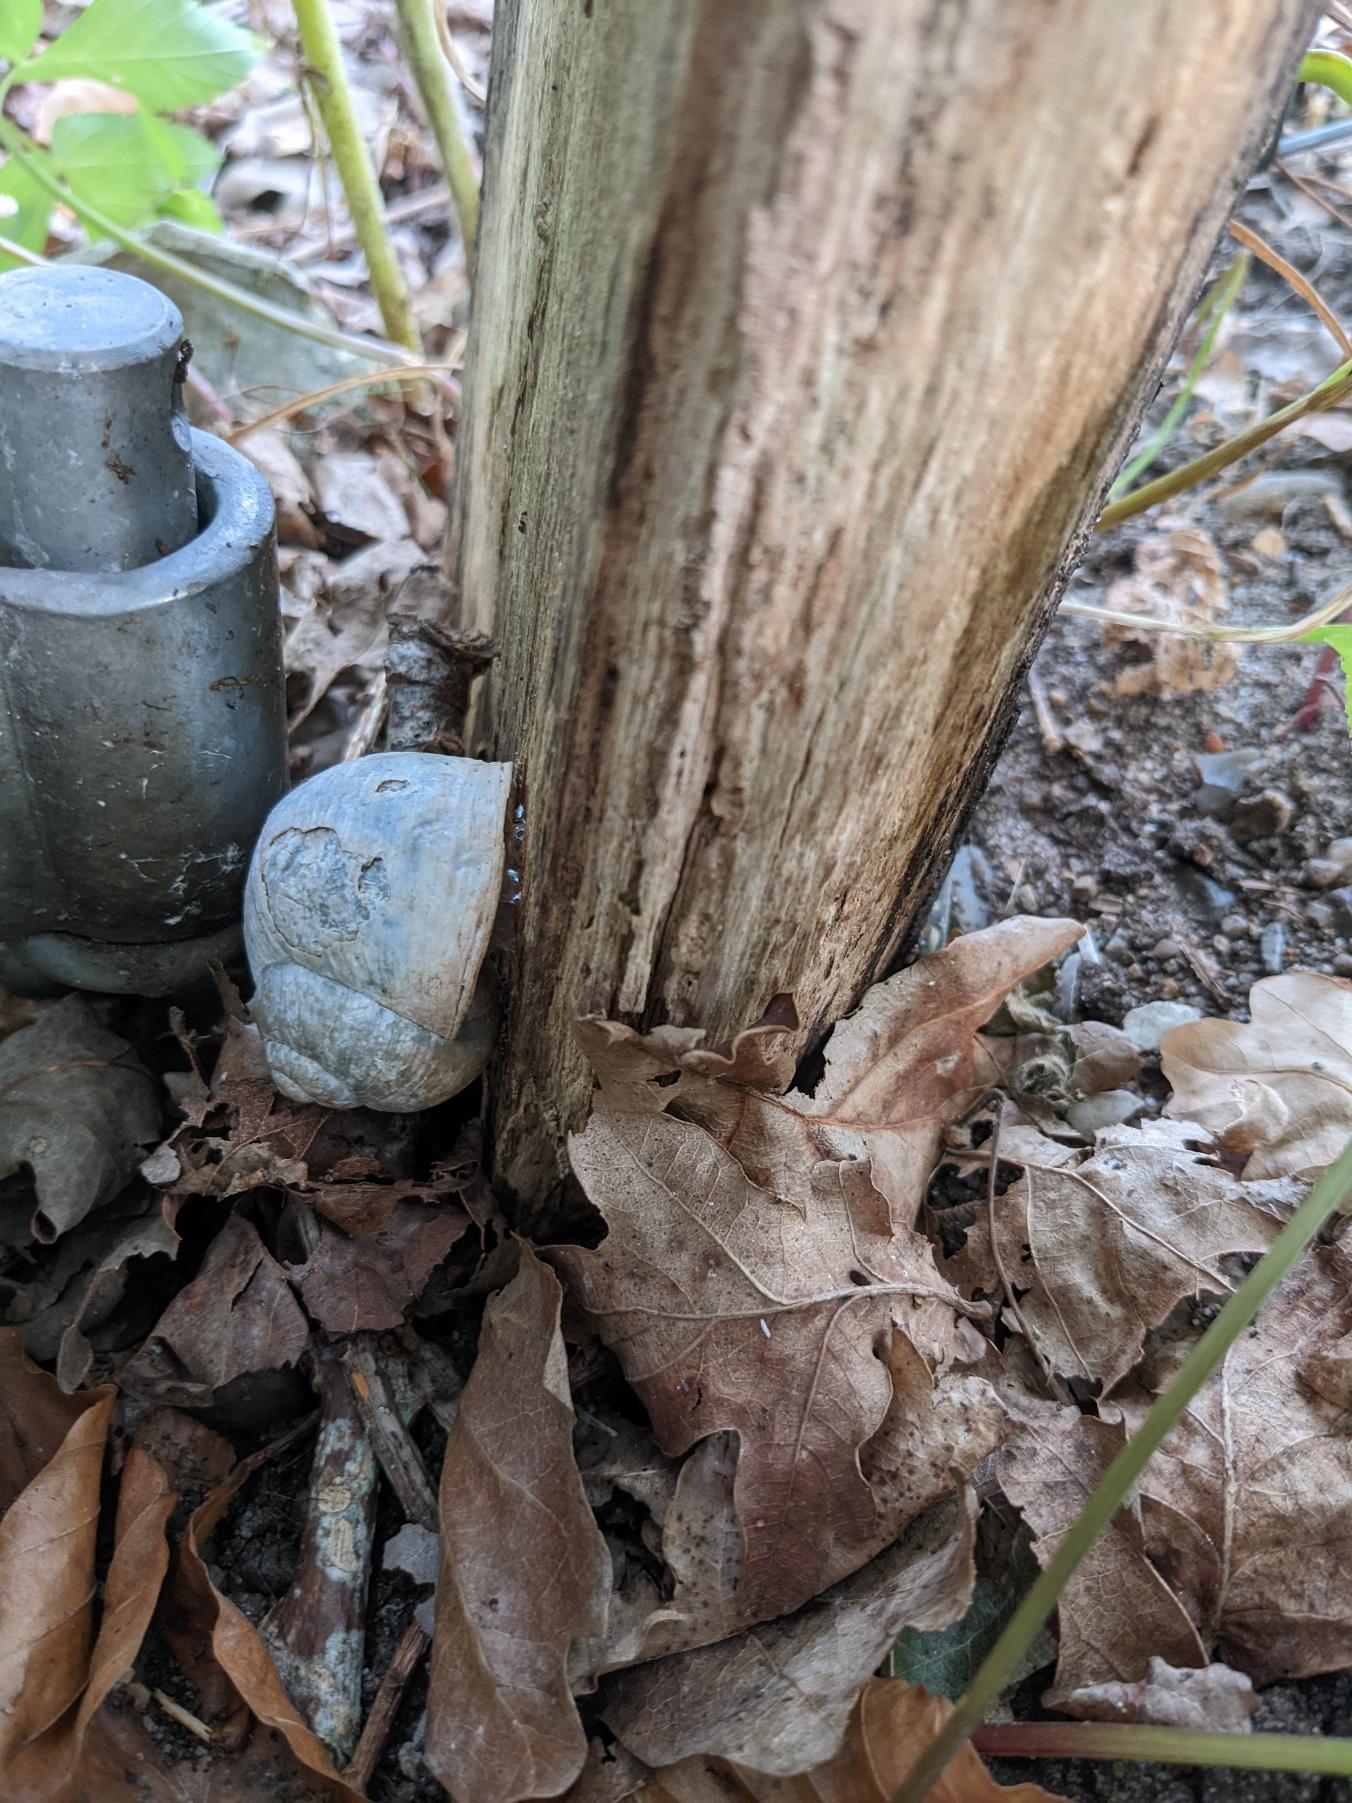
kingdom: Animalia
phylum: Mollusca
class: Gastropoda
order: Stylommatophora
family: Helicidae
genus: Helix
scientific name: Helix pomatia
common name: Vinbjergsnegl
